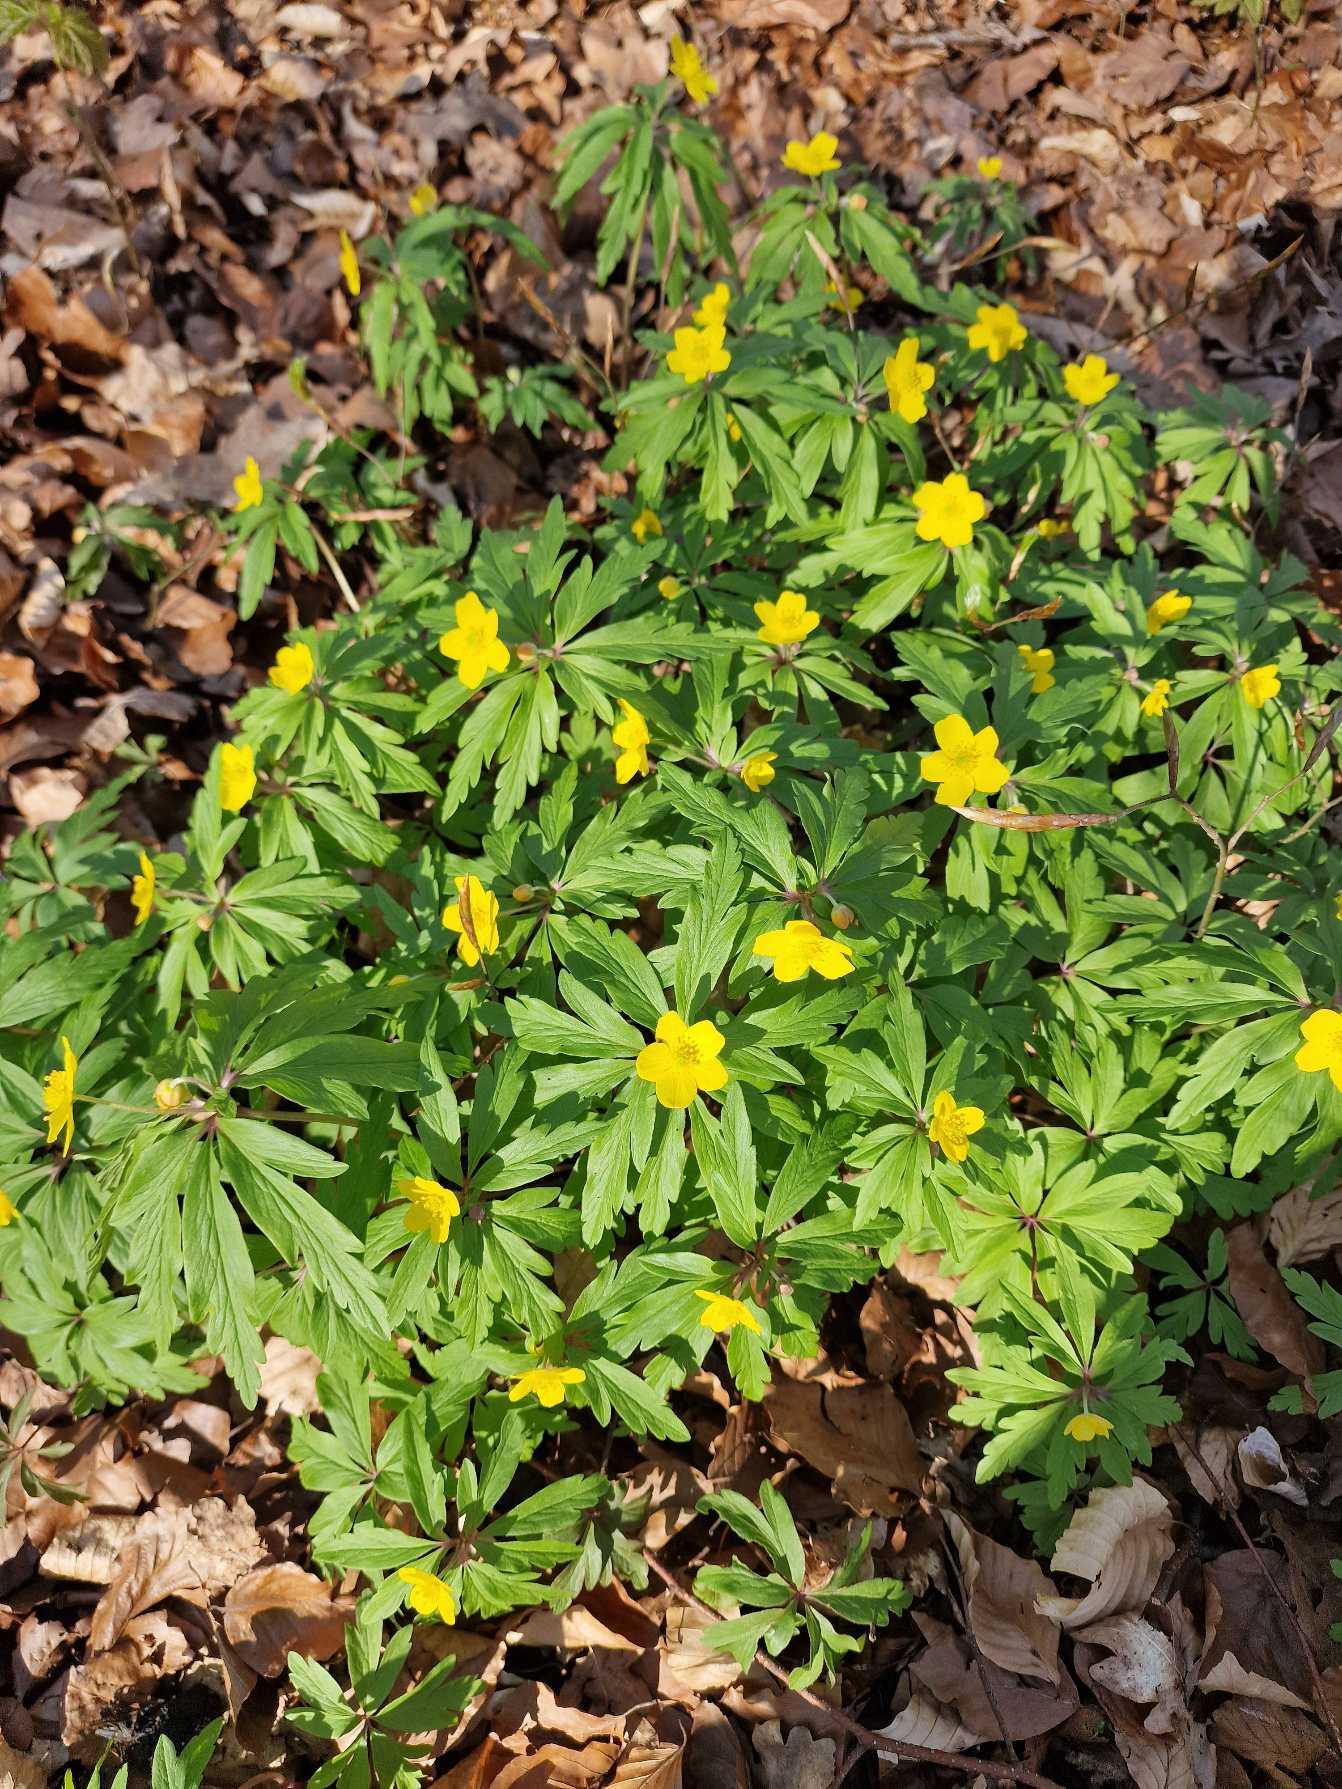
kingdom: Plantae
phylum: Tracheophyta
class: Magnoliopsida
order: Ranunculales
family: Ranunculaceae
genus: Anemone
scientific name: Anemone ranunculoides
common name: Gul anemone
